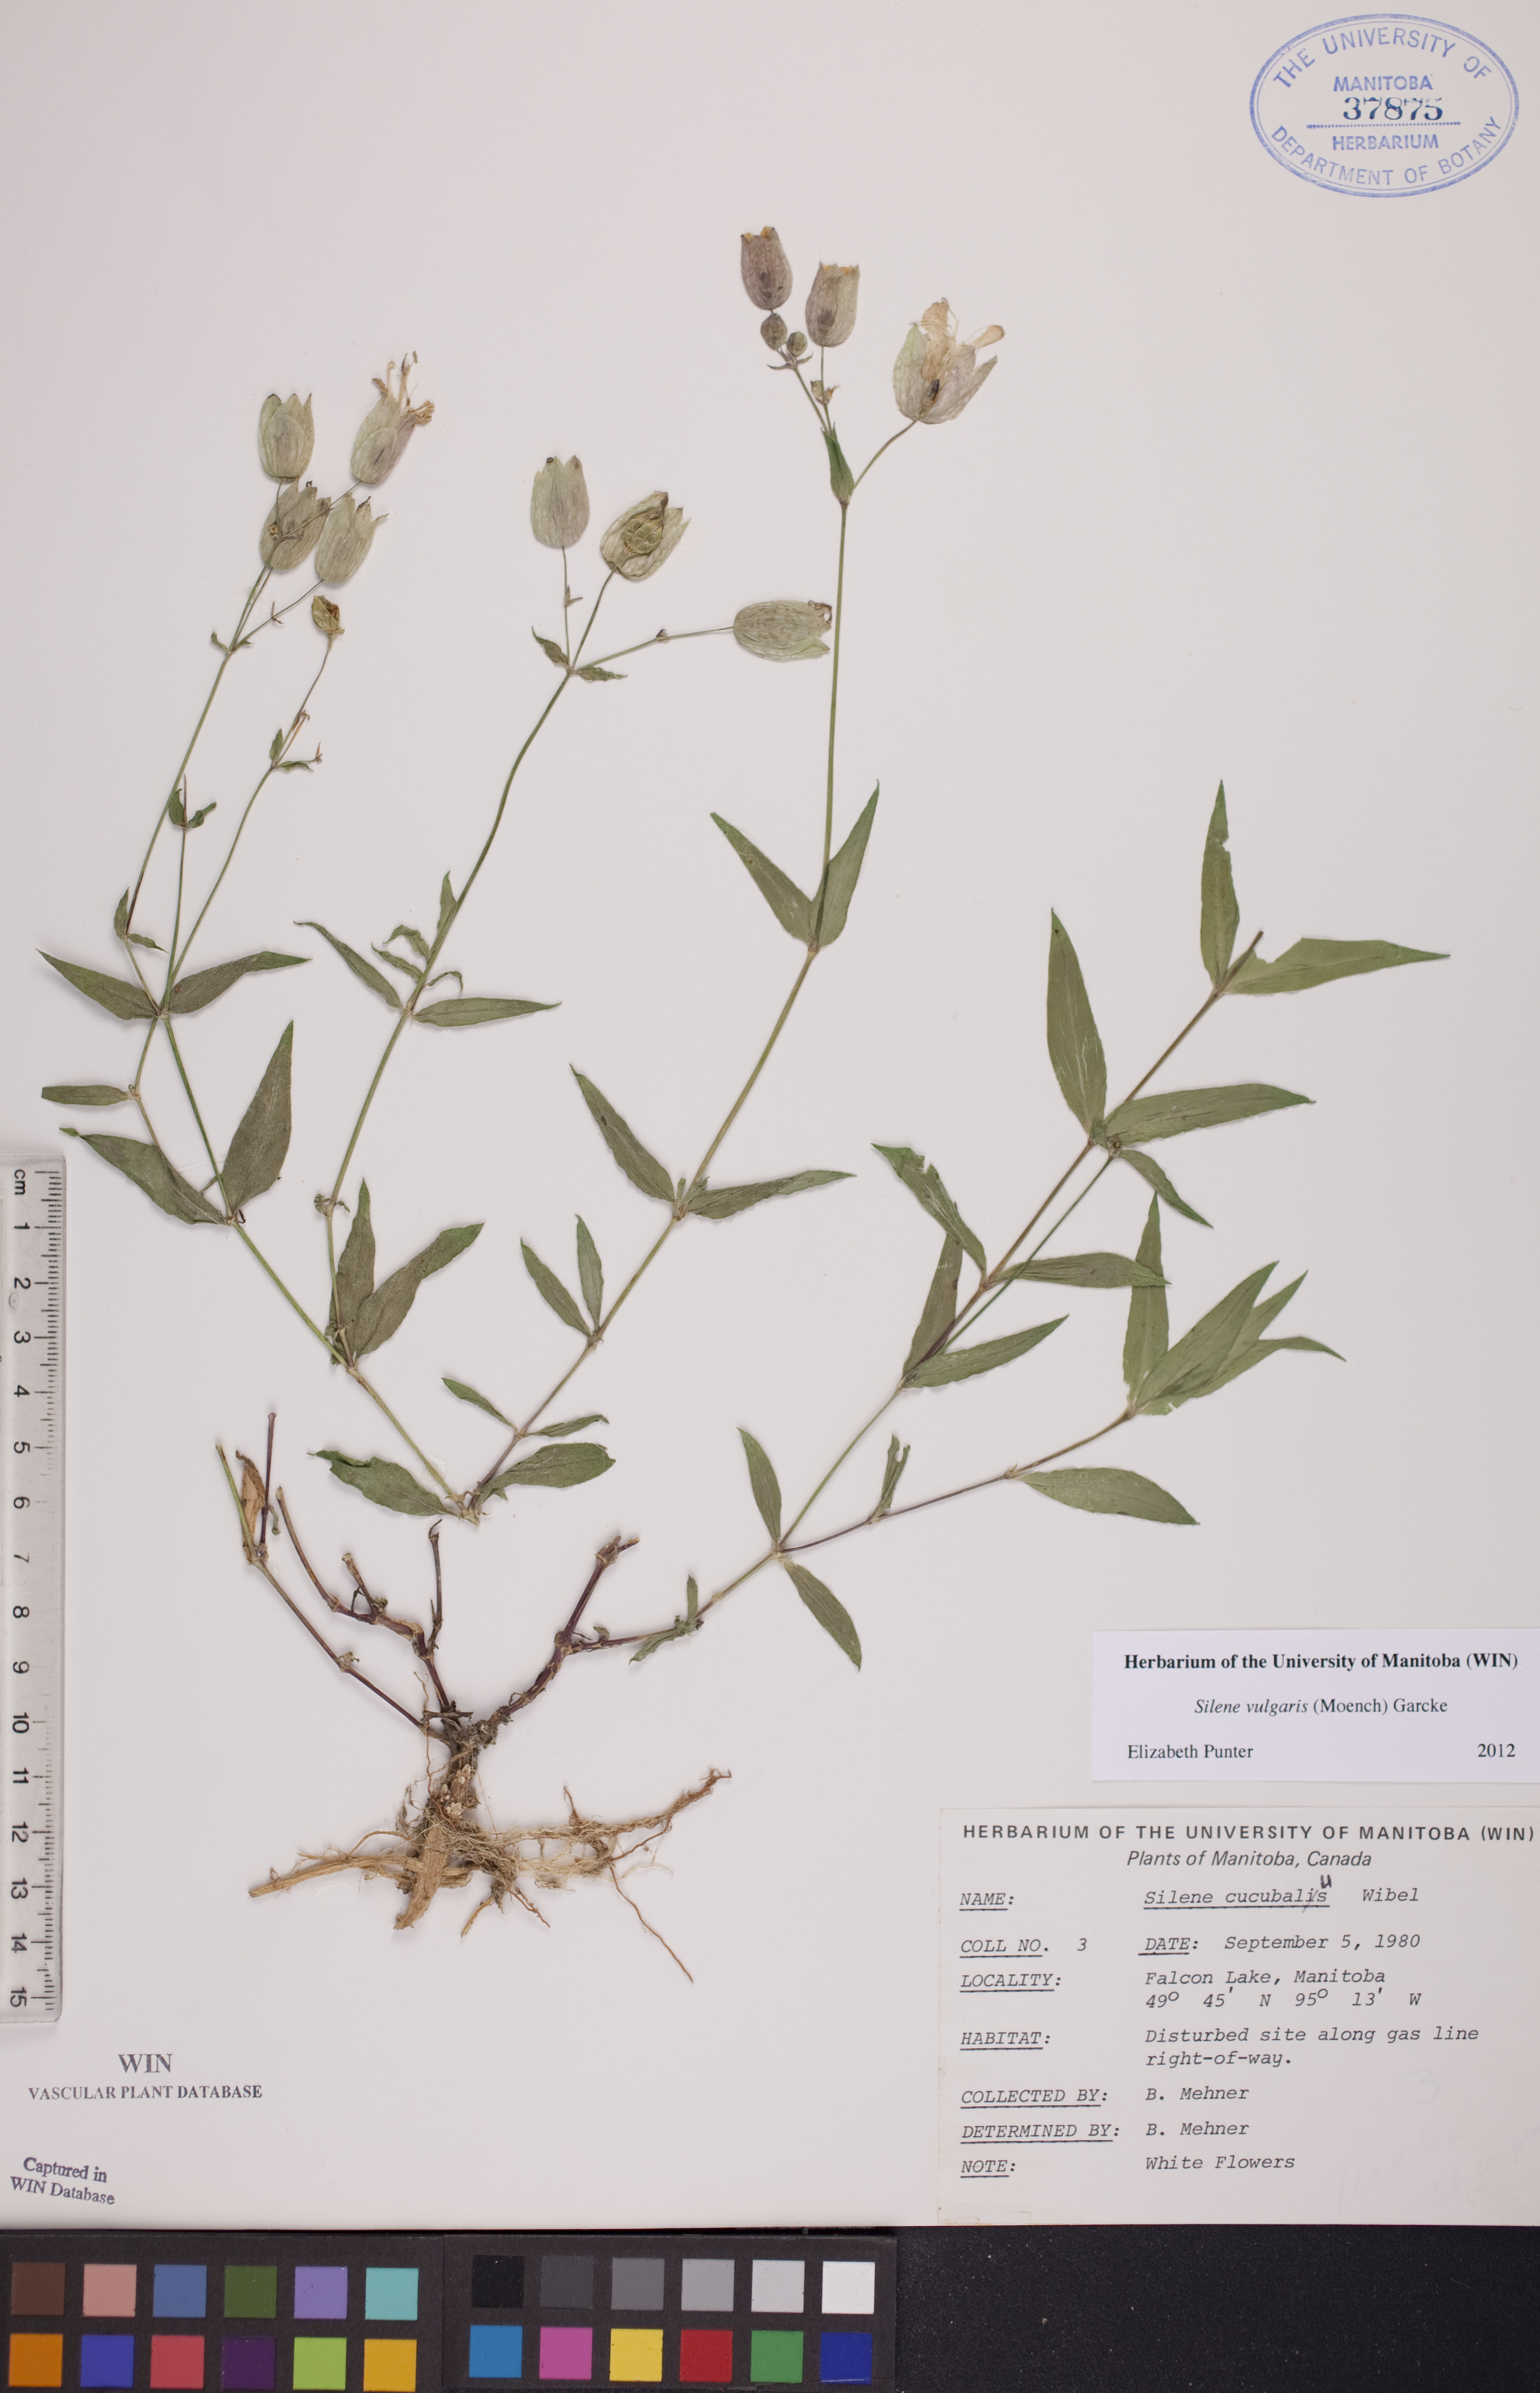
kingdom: Plantae
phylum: Tracheophyta
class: Magnoliopsida
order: Caryophyllales
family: Caryophyllaceae
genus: Silene
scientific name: Silene vulgaris
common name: Bladder campion
